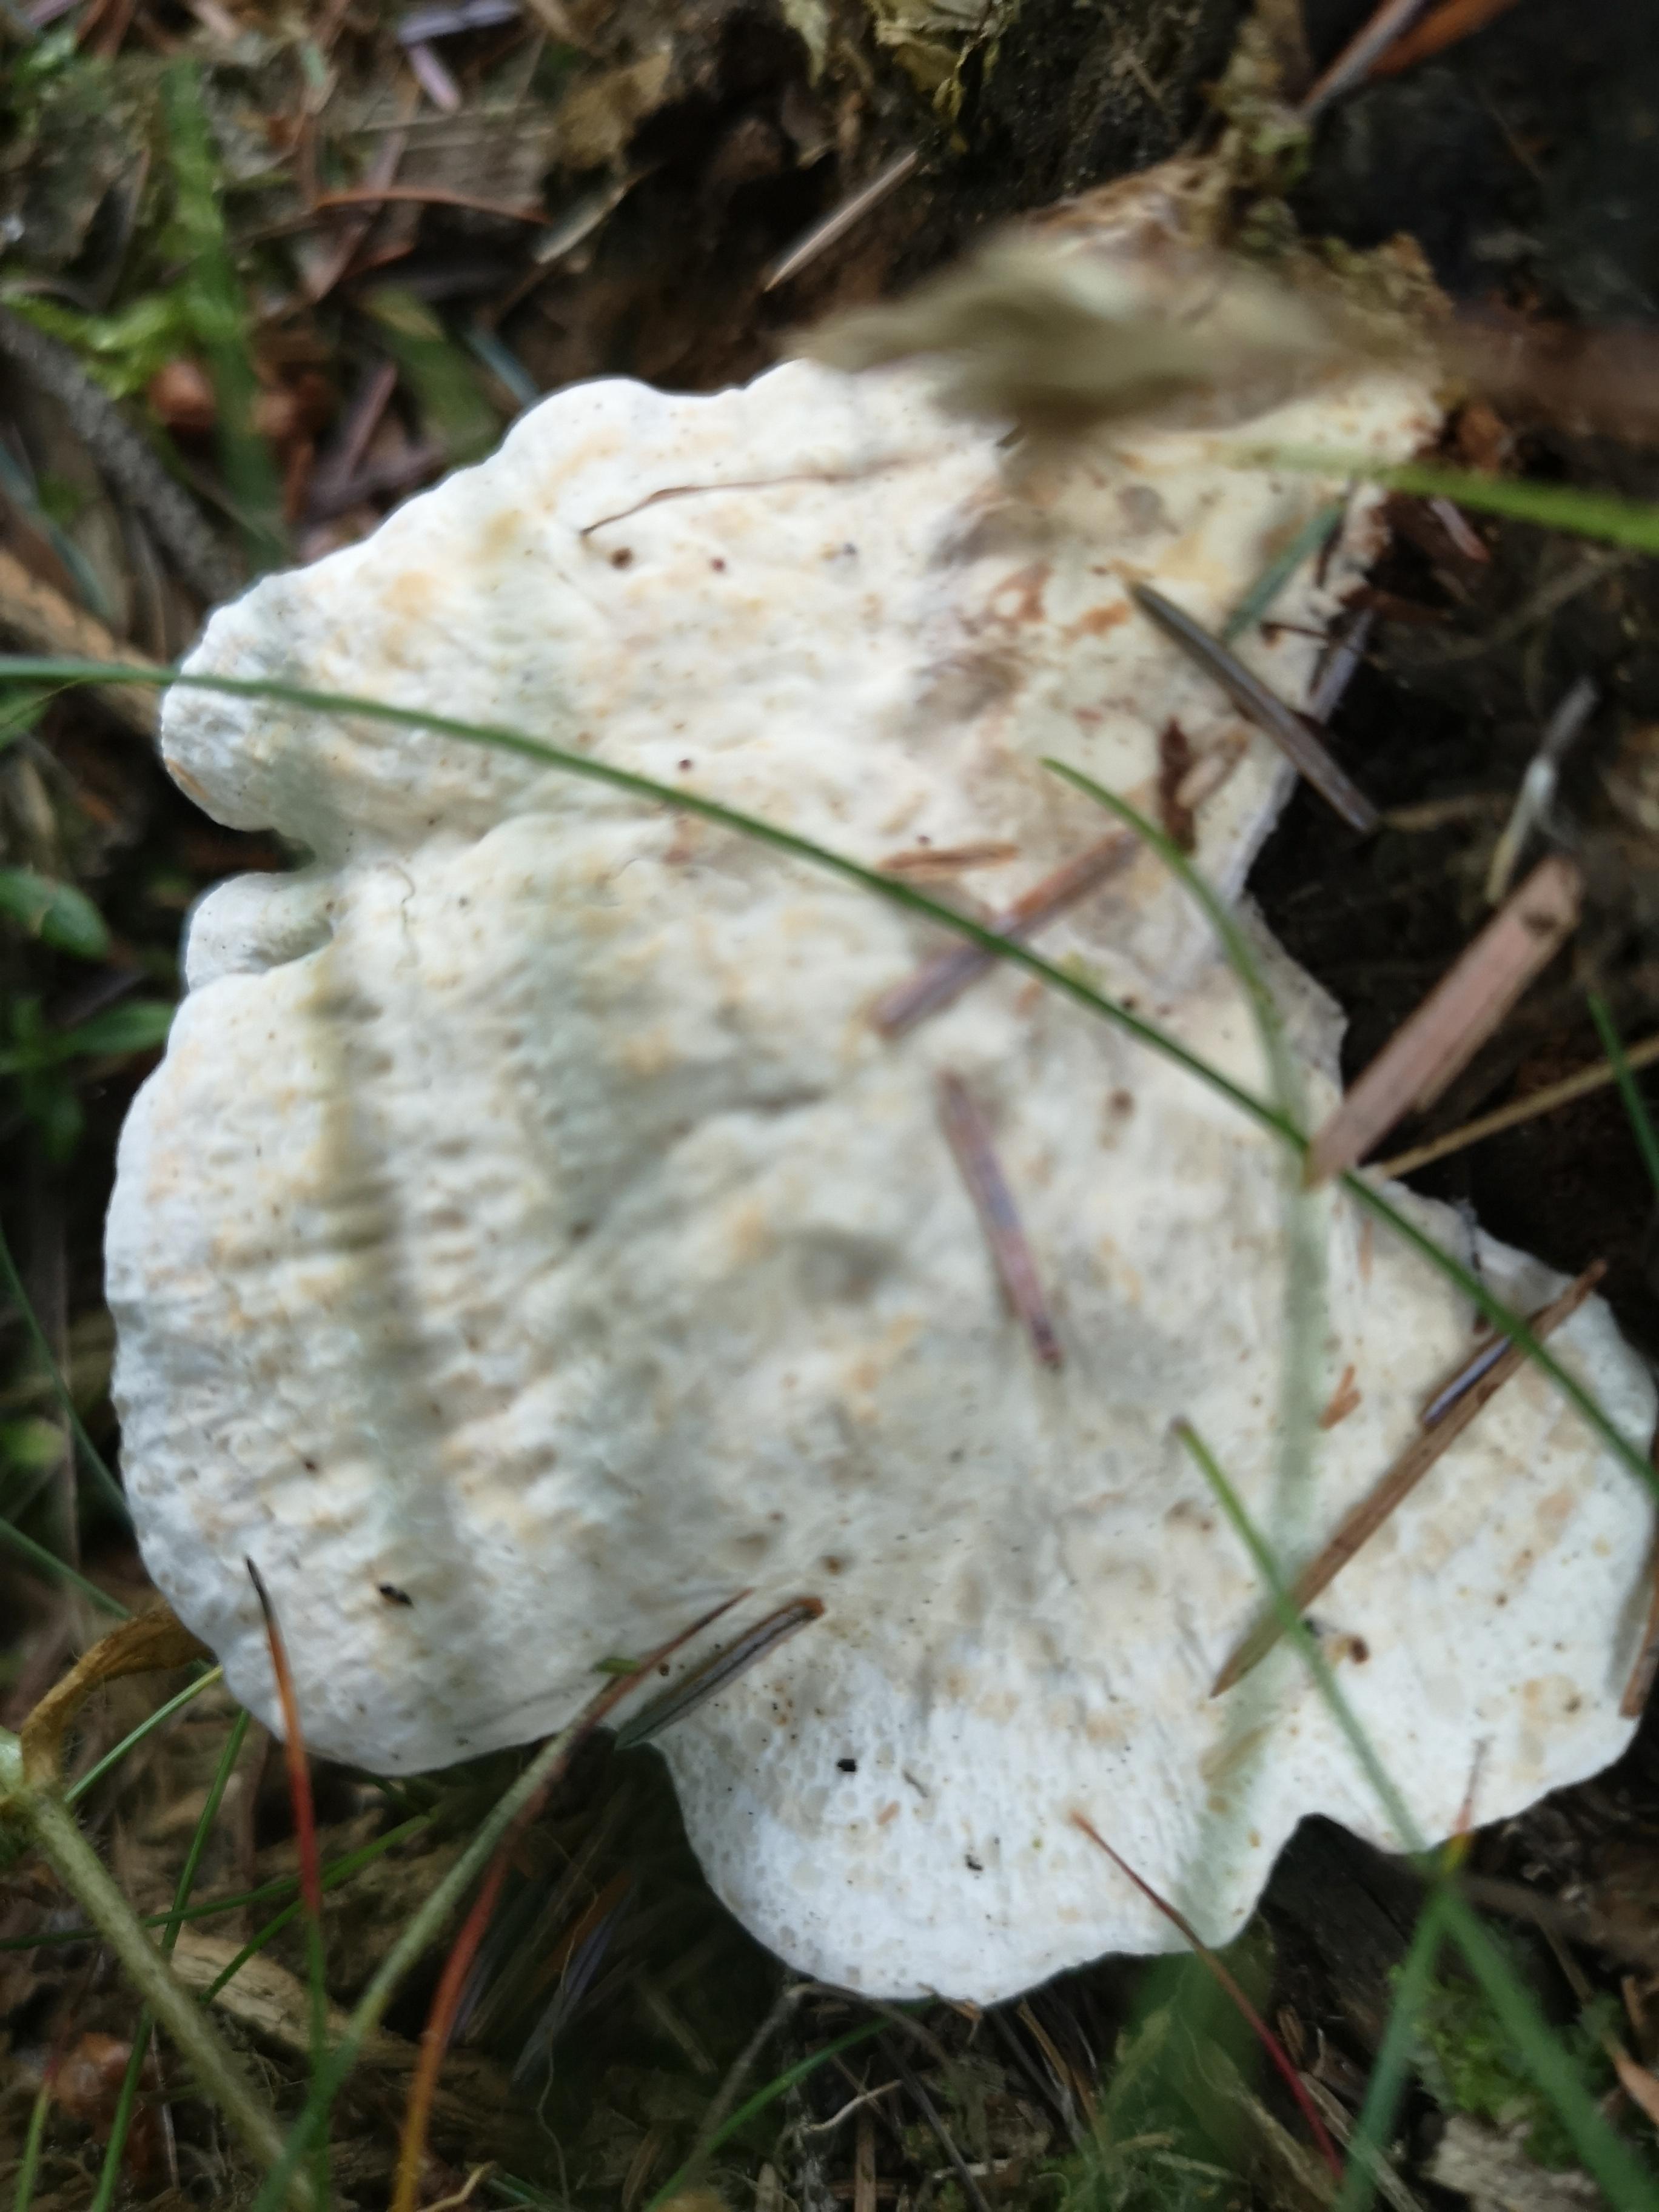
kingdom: Fungi
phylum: Basidiomycota
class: Agaricomycetes
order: Polyporales
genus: Calcipostia
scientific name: Calcipostia guttulata
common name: dråbe-kødporesvamp
